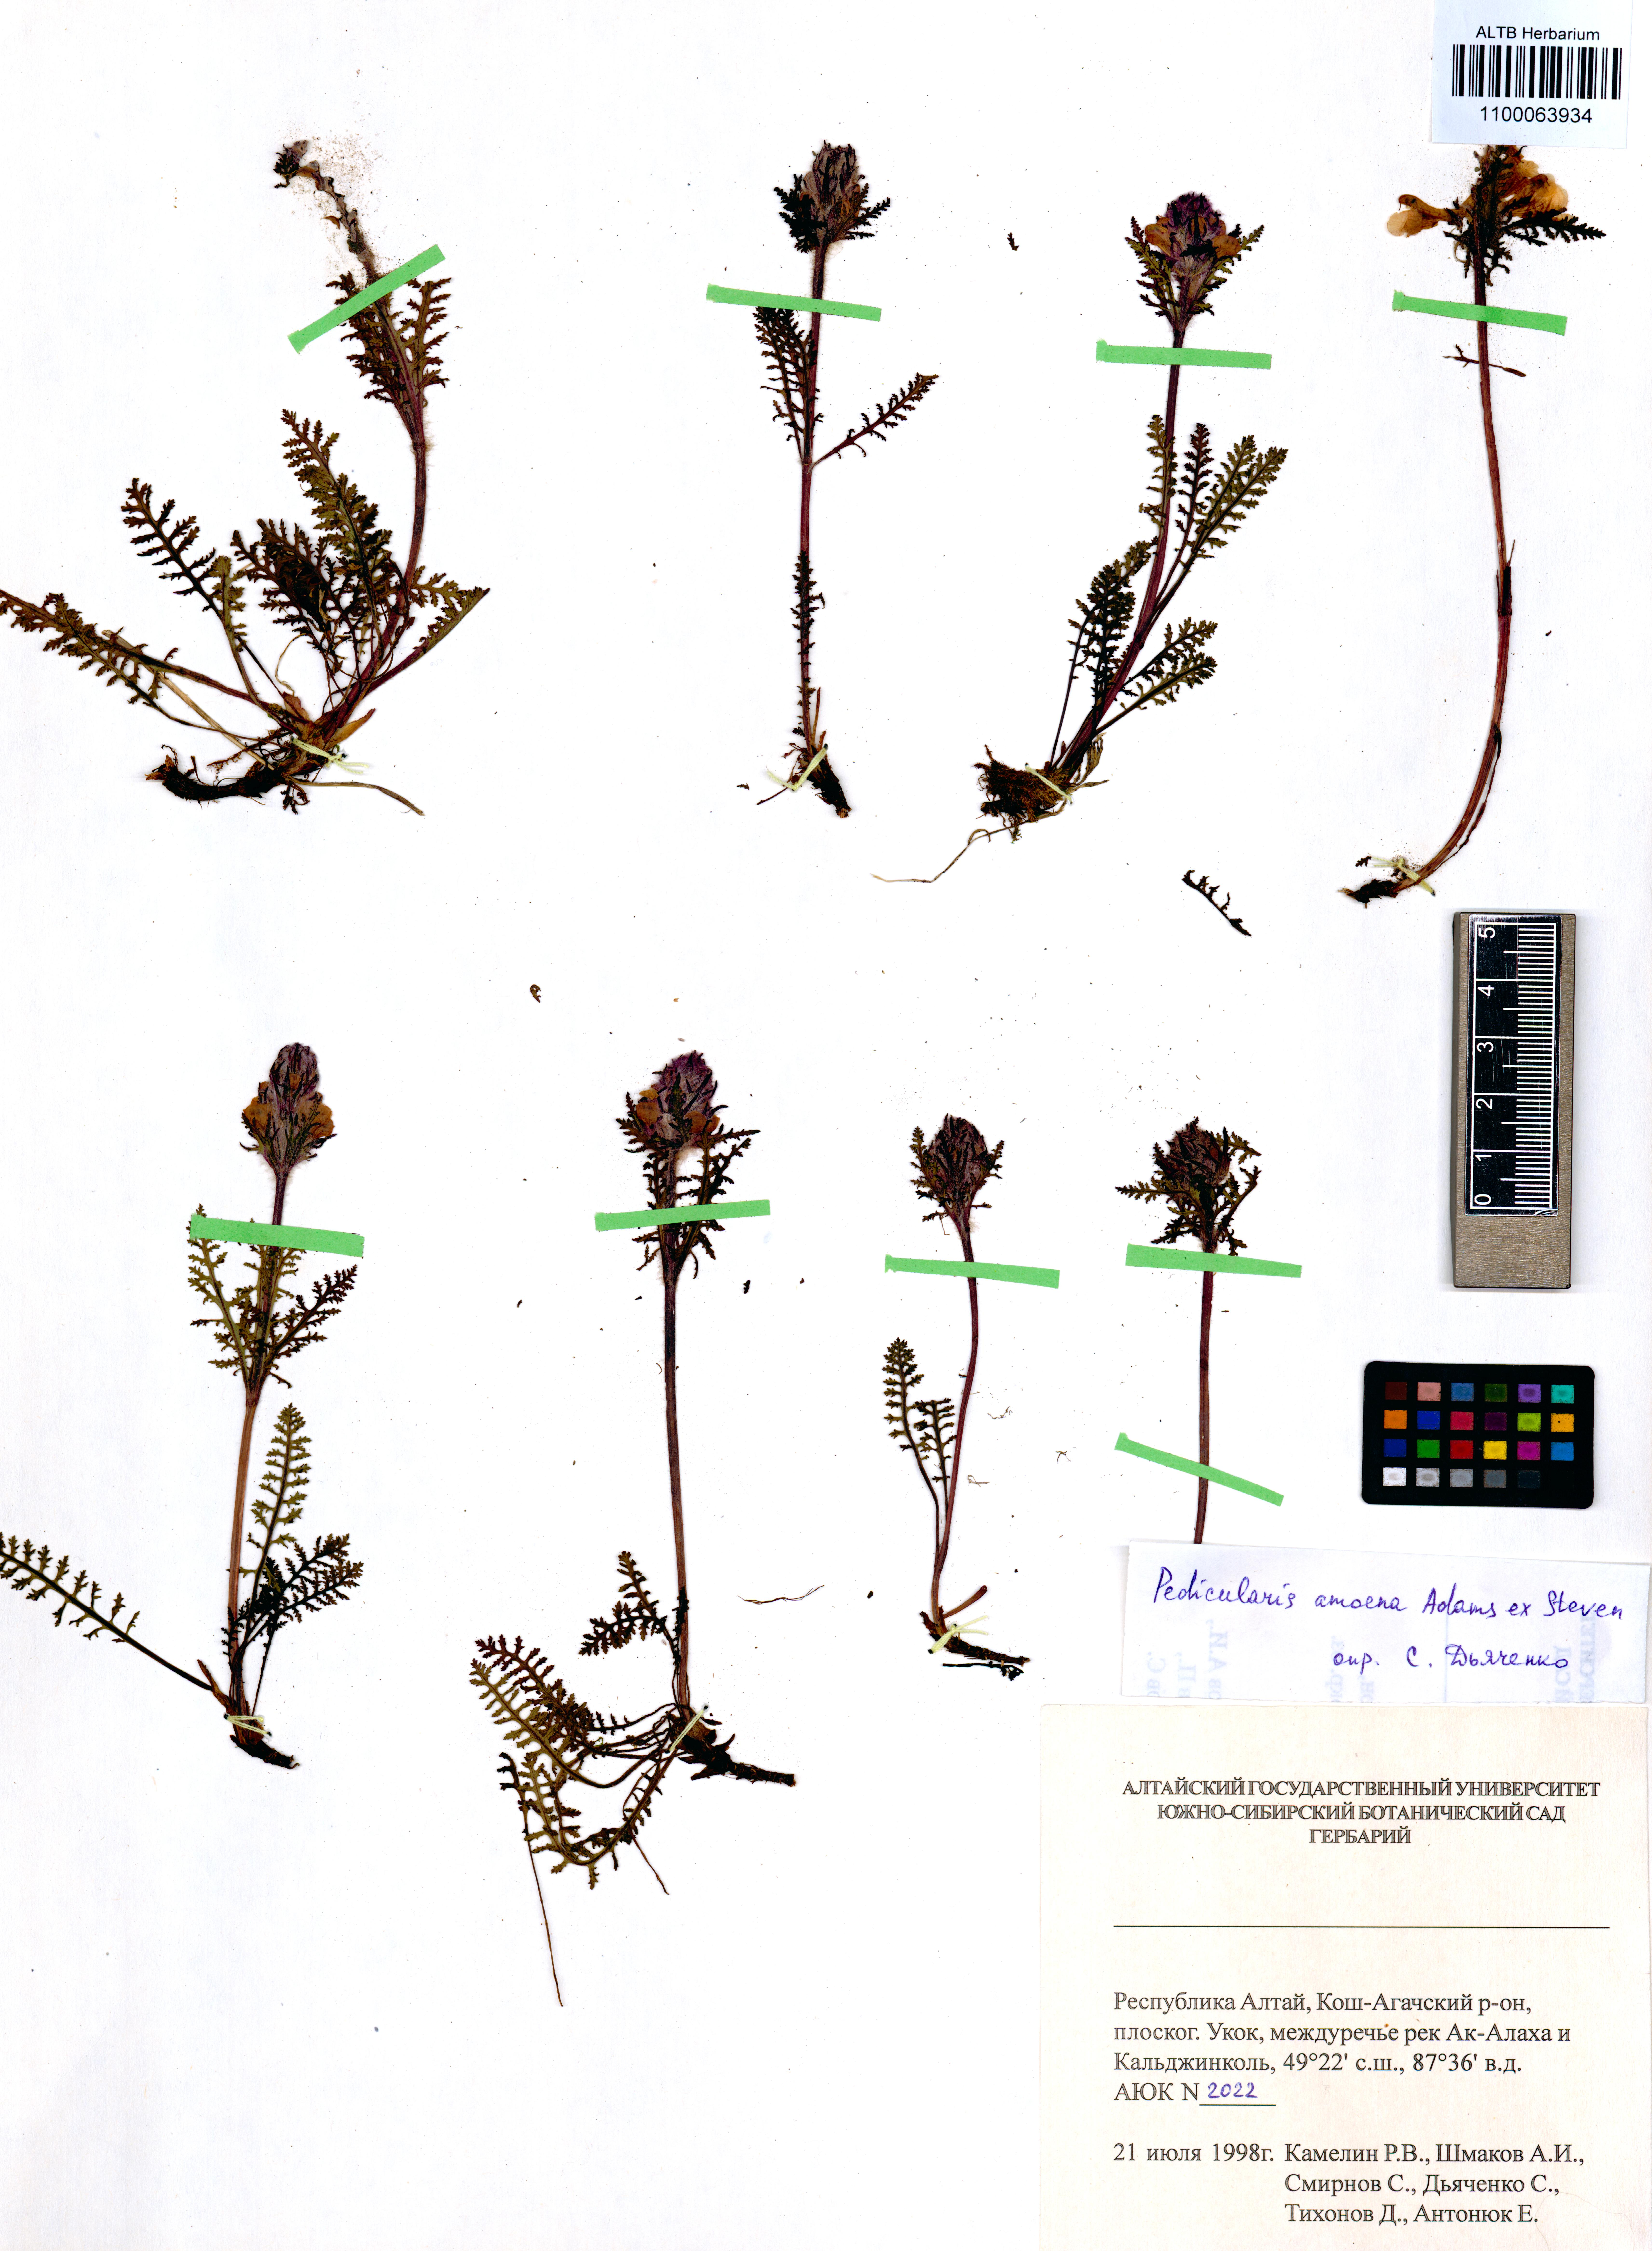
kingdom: Plantae
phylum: Tracheophyta
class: Magnoliopsida
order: Lamiales
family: Orobanchaceae
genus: Pedicularis
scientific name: Pedicularis amoena
